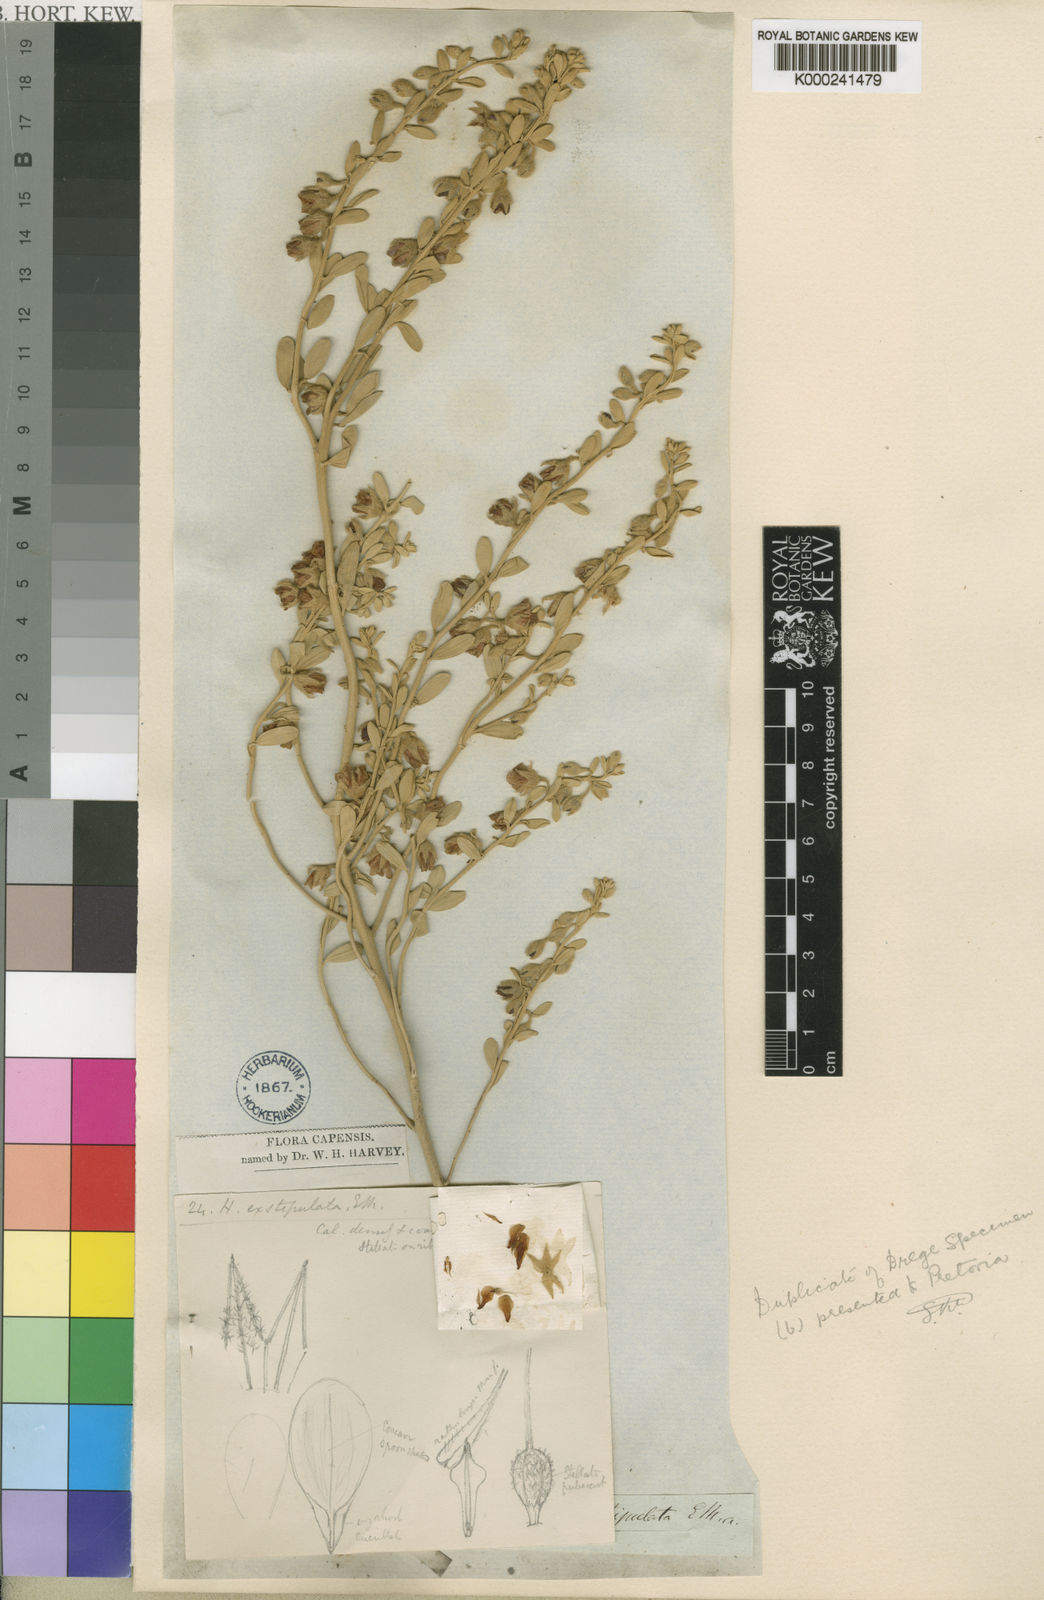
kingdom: Plantae
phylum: Tracheophyta
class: Magnoliopsida
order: Malvales
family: Malvaceae
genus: Hermannia
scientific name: Hermannia
